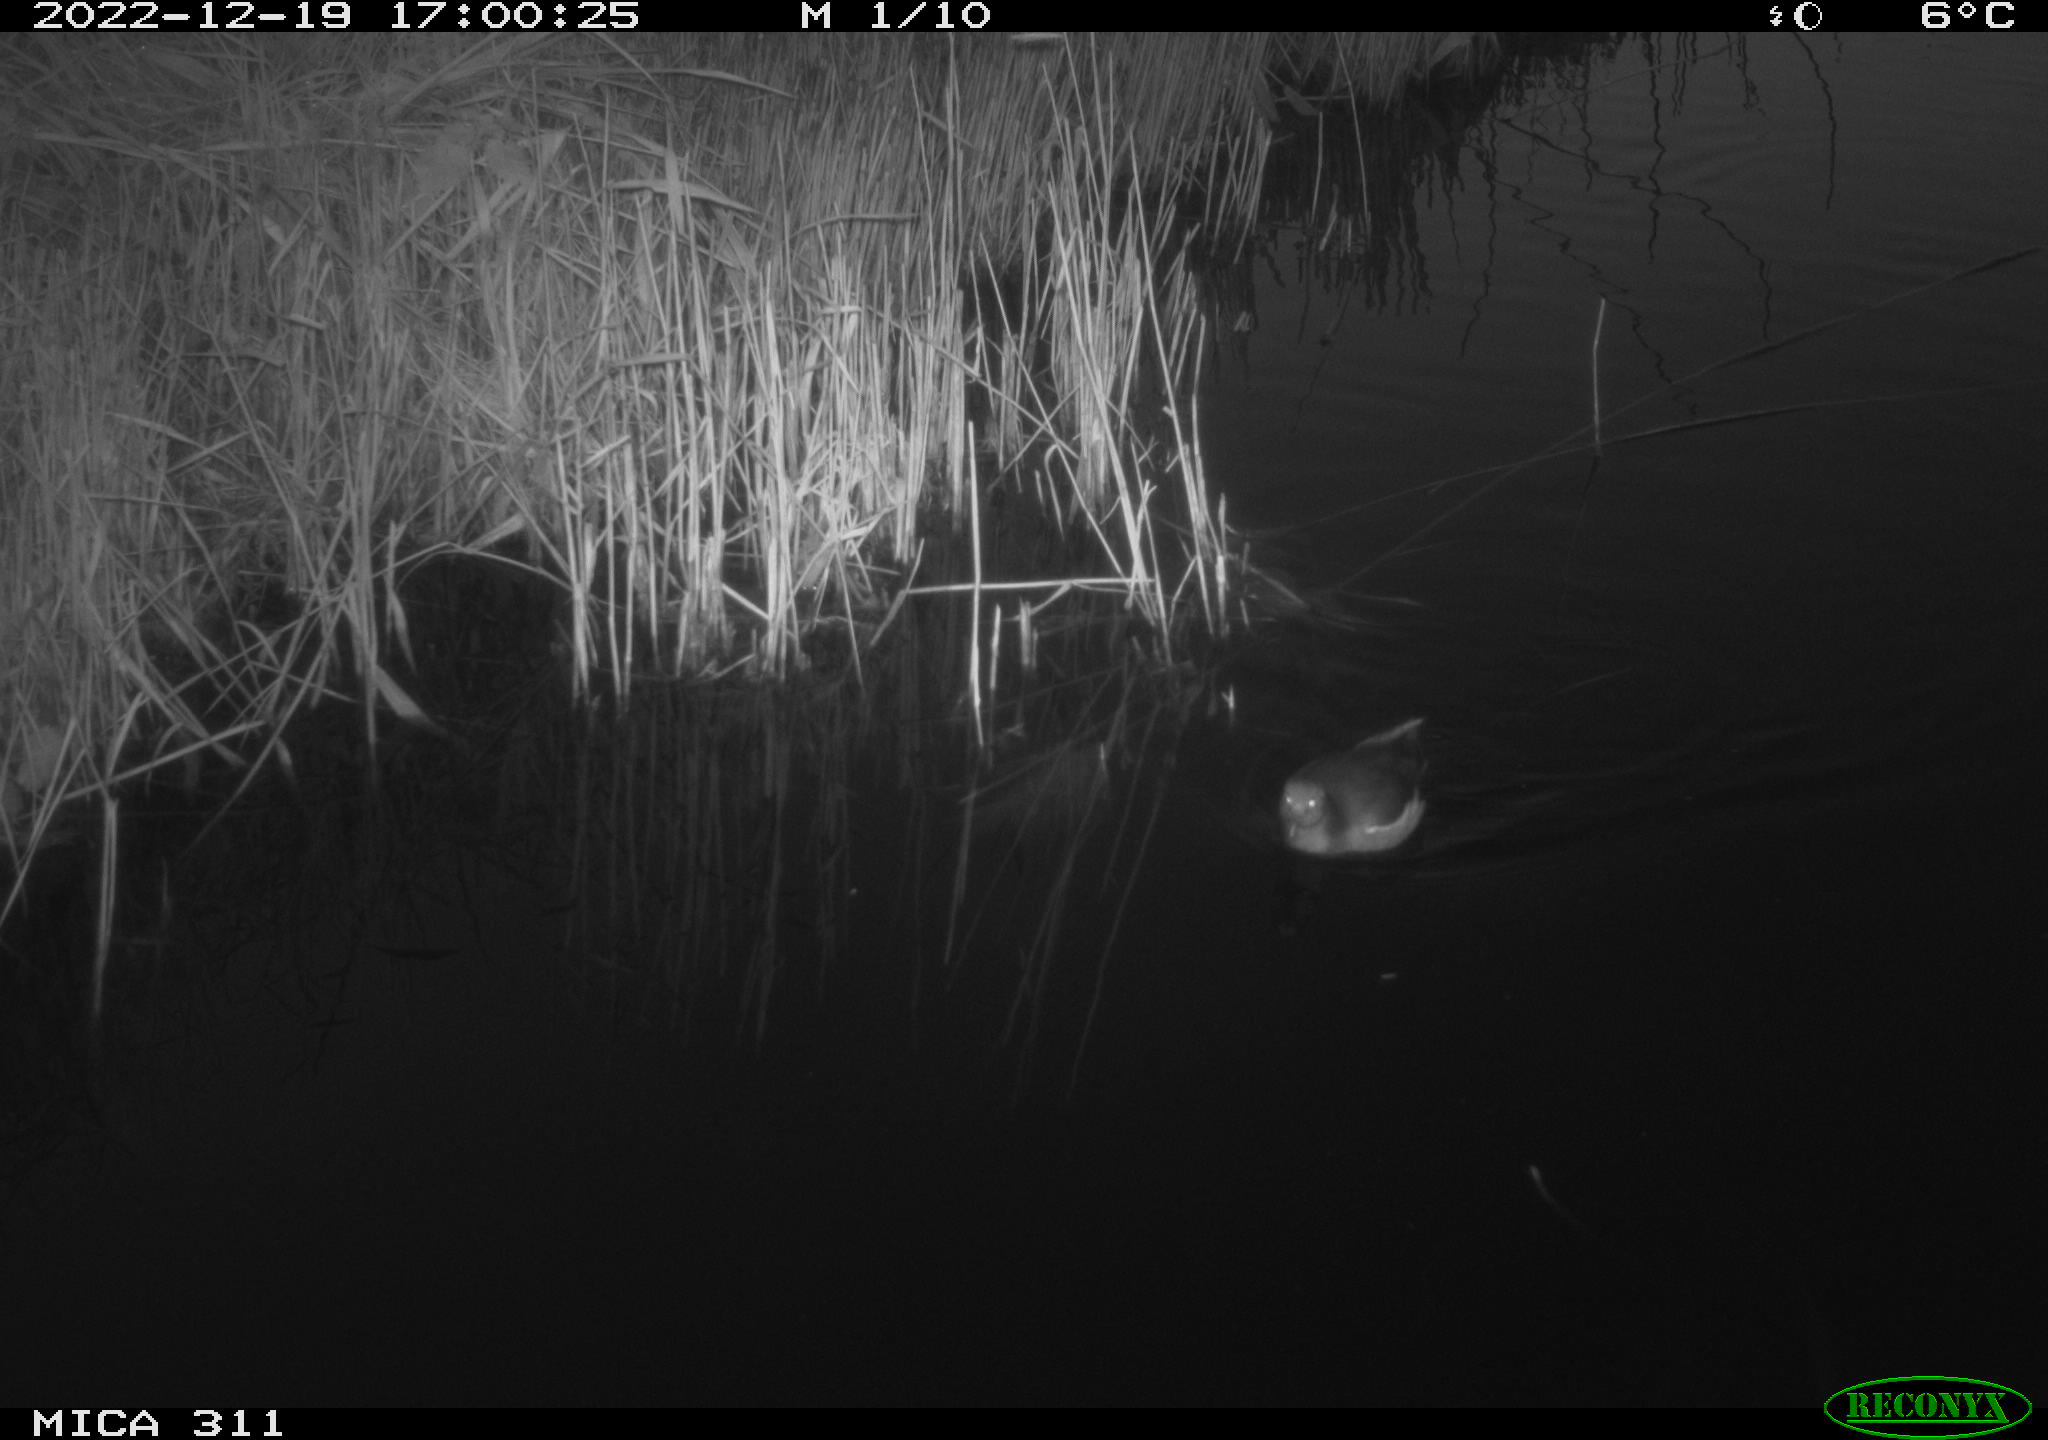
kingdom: Animalia
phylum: Chordata
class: Aves
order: Gruiformes
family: Rallidae
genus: Gallinula
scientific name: Gallinula chloropus
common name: Common moorhen
